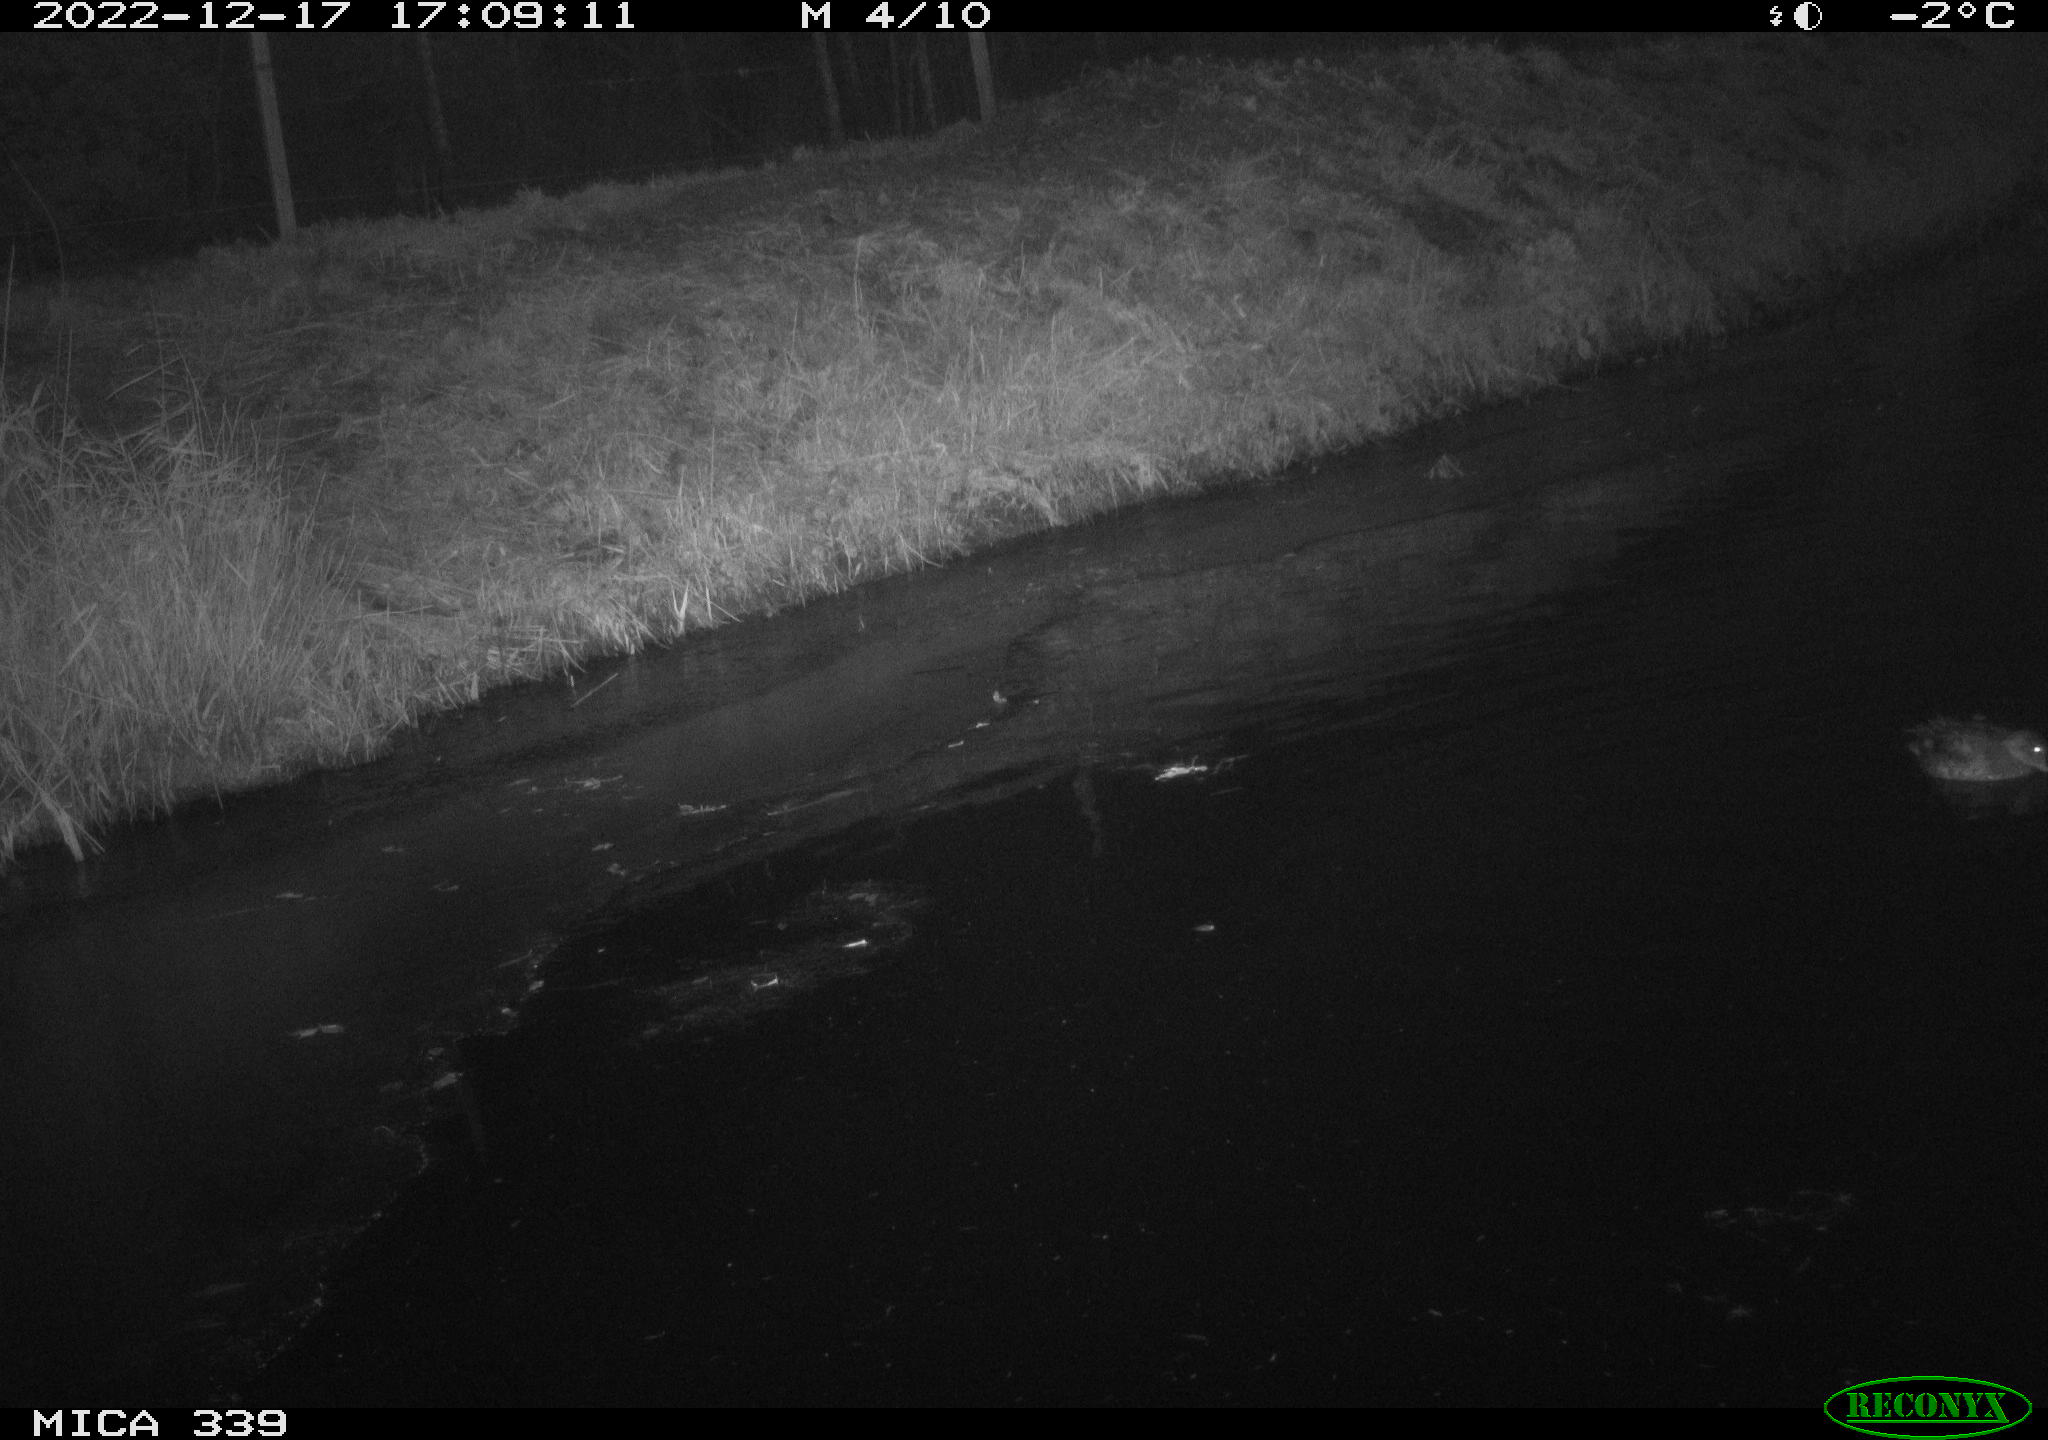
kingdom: Animalia
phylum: Chordata
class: Aves
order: Anseriformes
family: Anatidae
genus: Anas
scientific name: Anas
